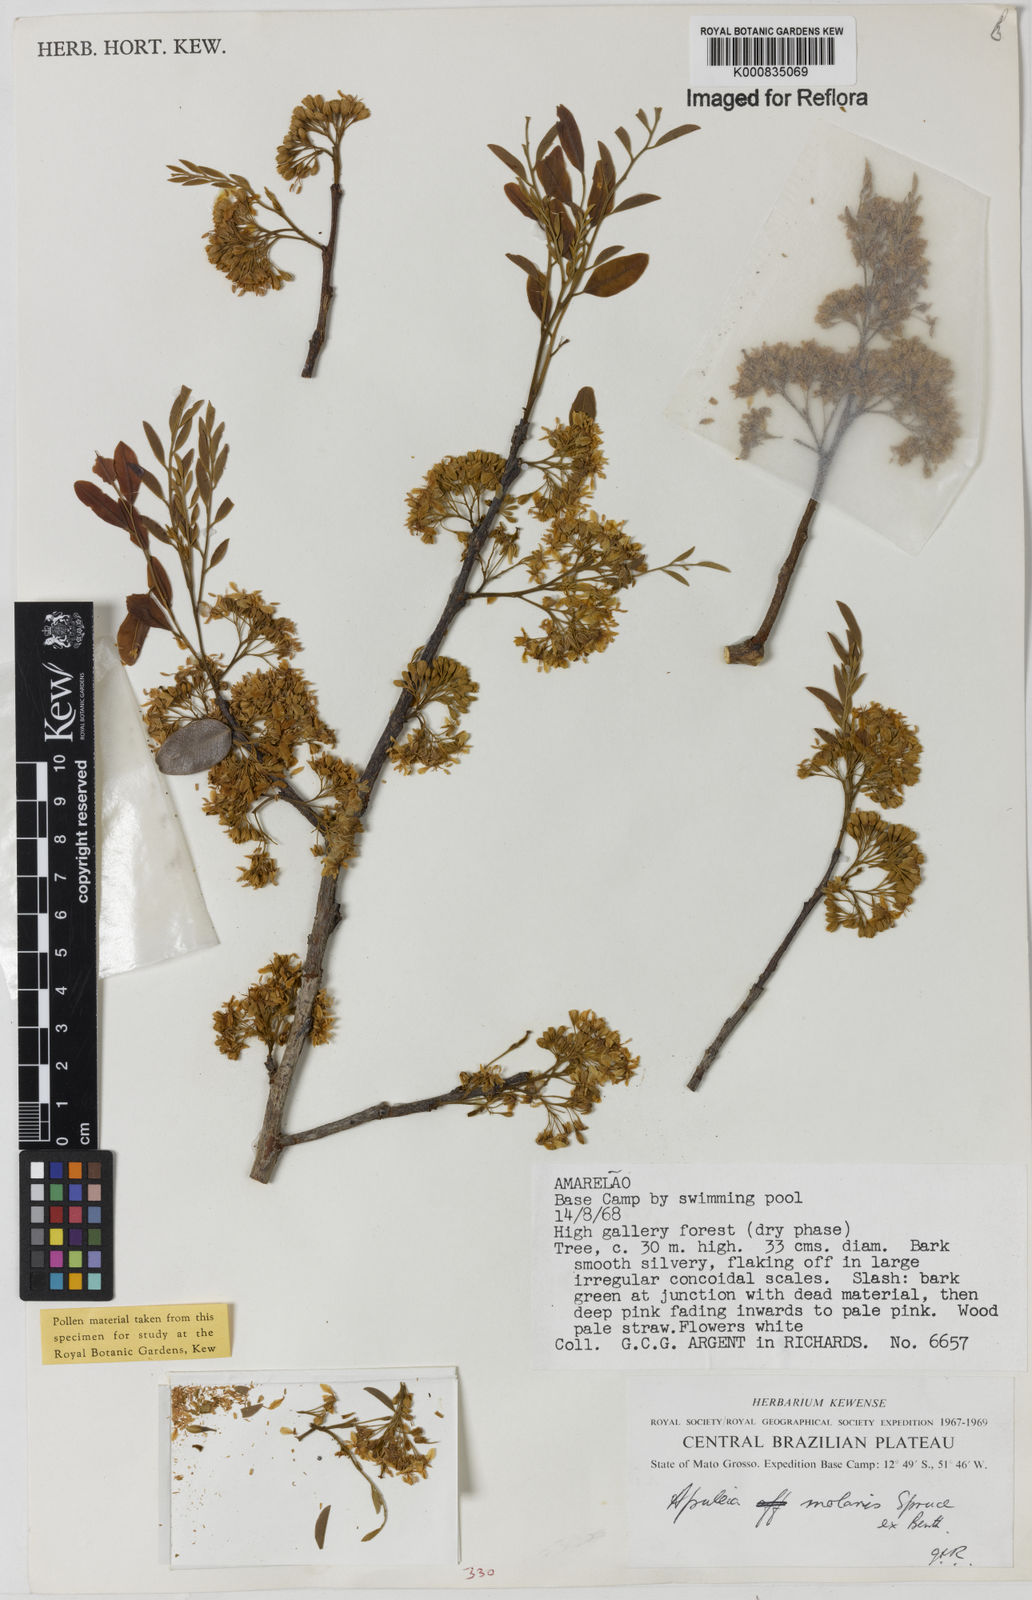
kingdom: Plantae
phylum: Tracheophyta
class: Magnoliopsida
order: Fabales
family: Fabaceae
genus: Apuleia
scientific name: Apuleia leiocarpa
